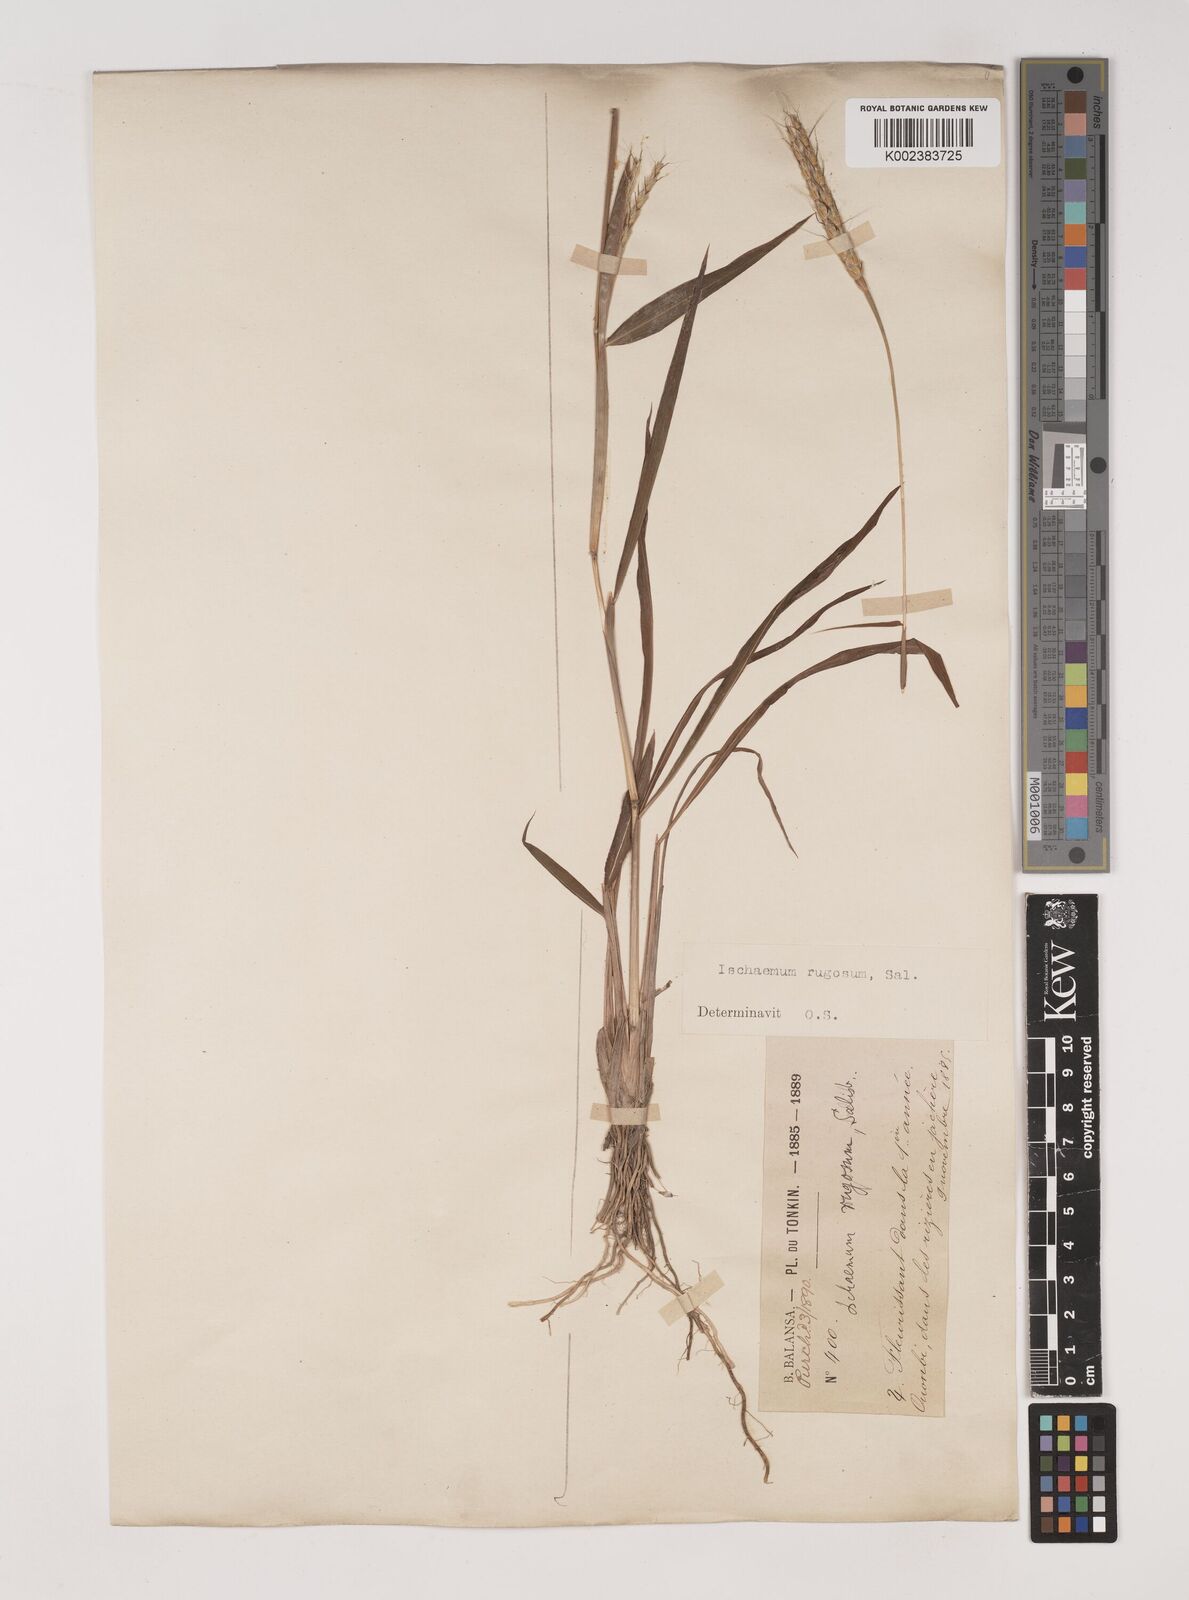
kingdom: Plantae
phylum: Tracheophyta
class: Liliopsida
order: Poales
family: Poaceae
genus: Ischaemum
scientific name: Ischaemum rugosum
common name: Saramatta grass
